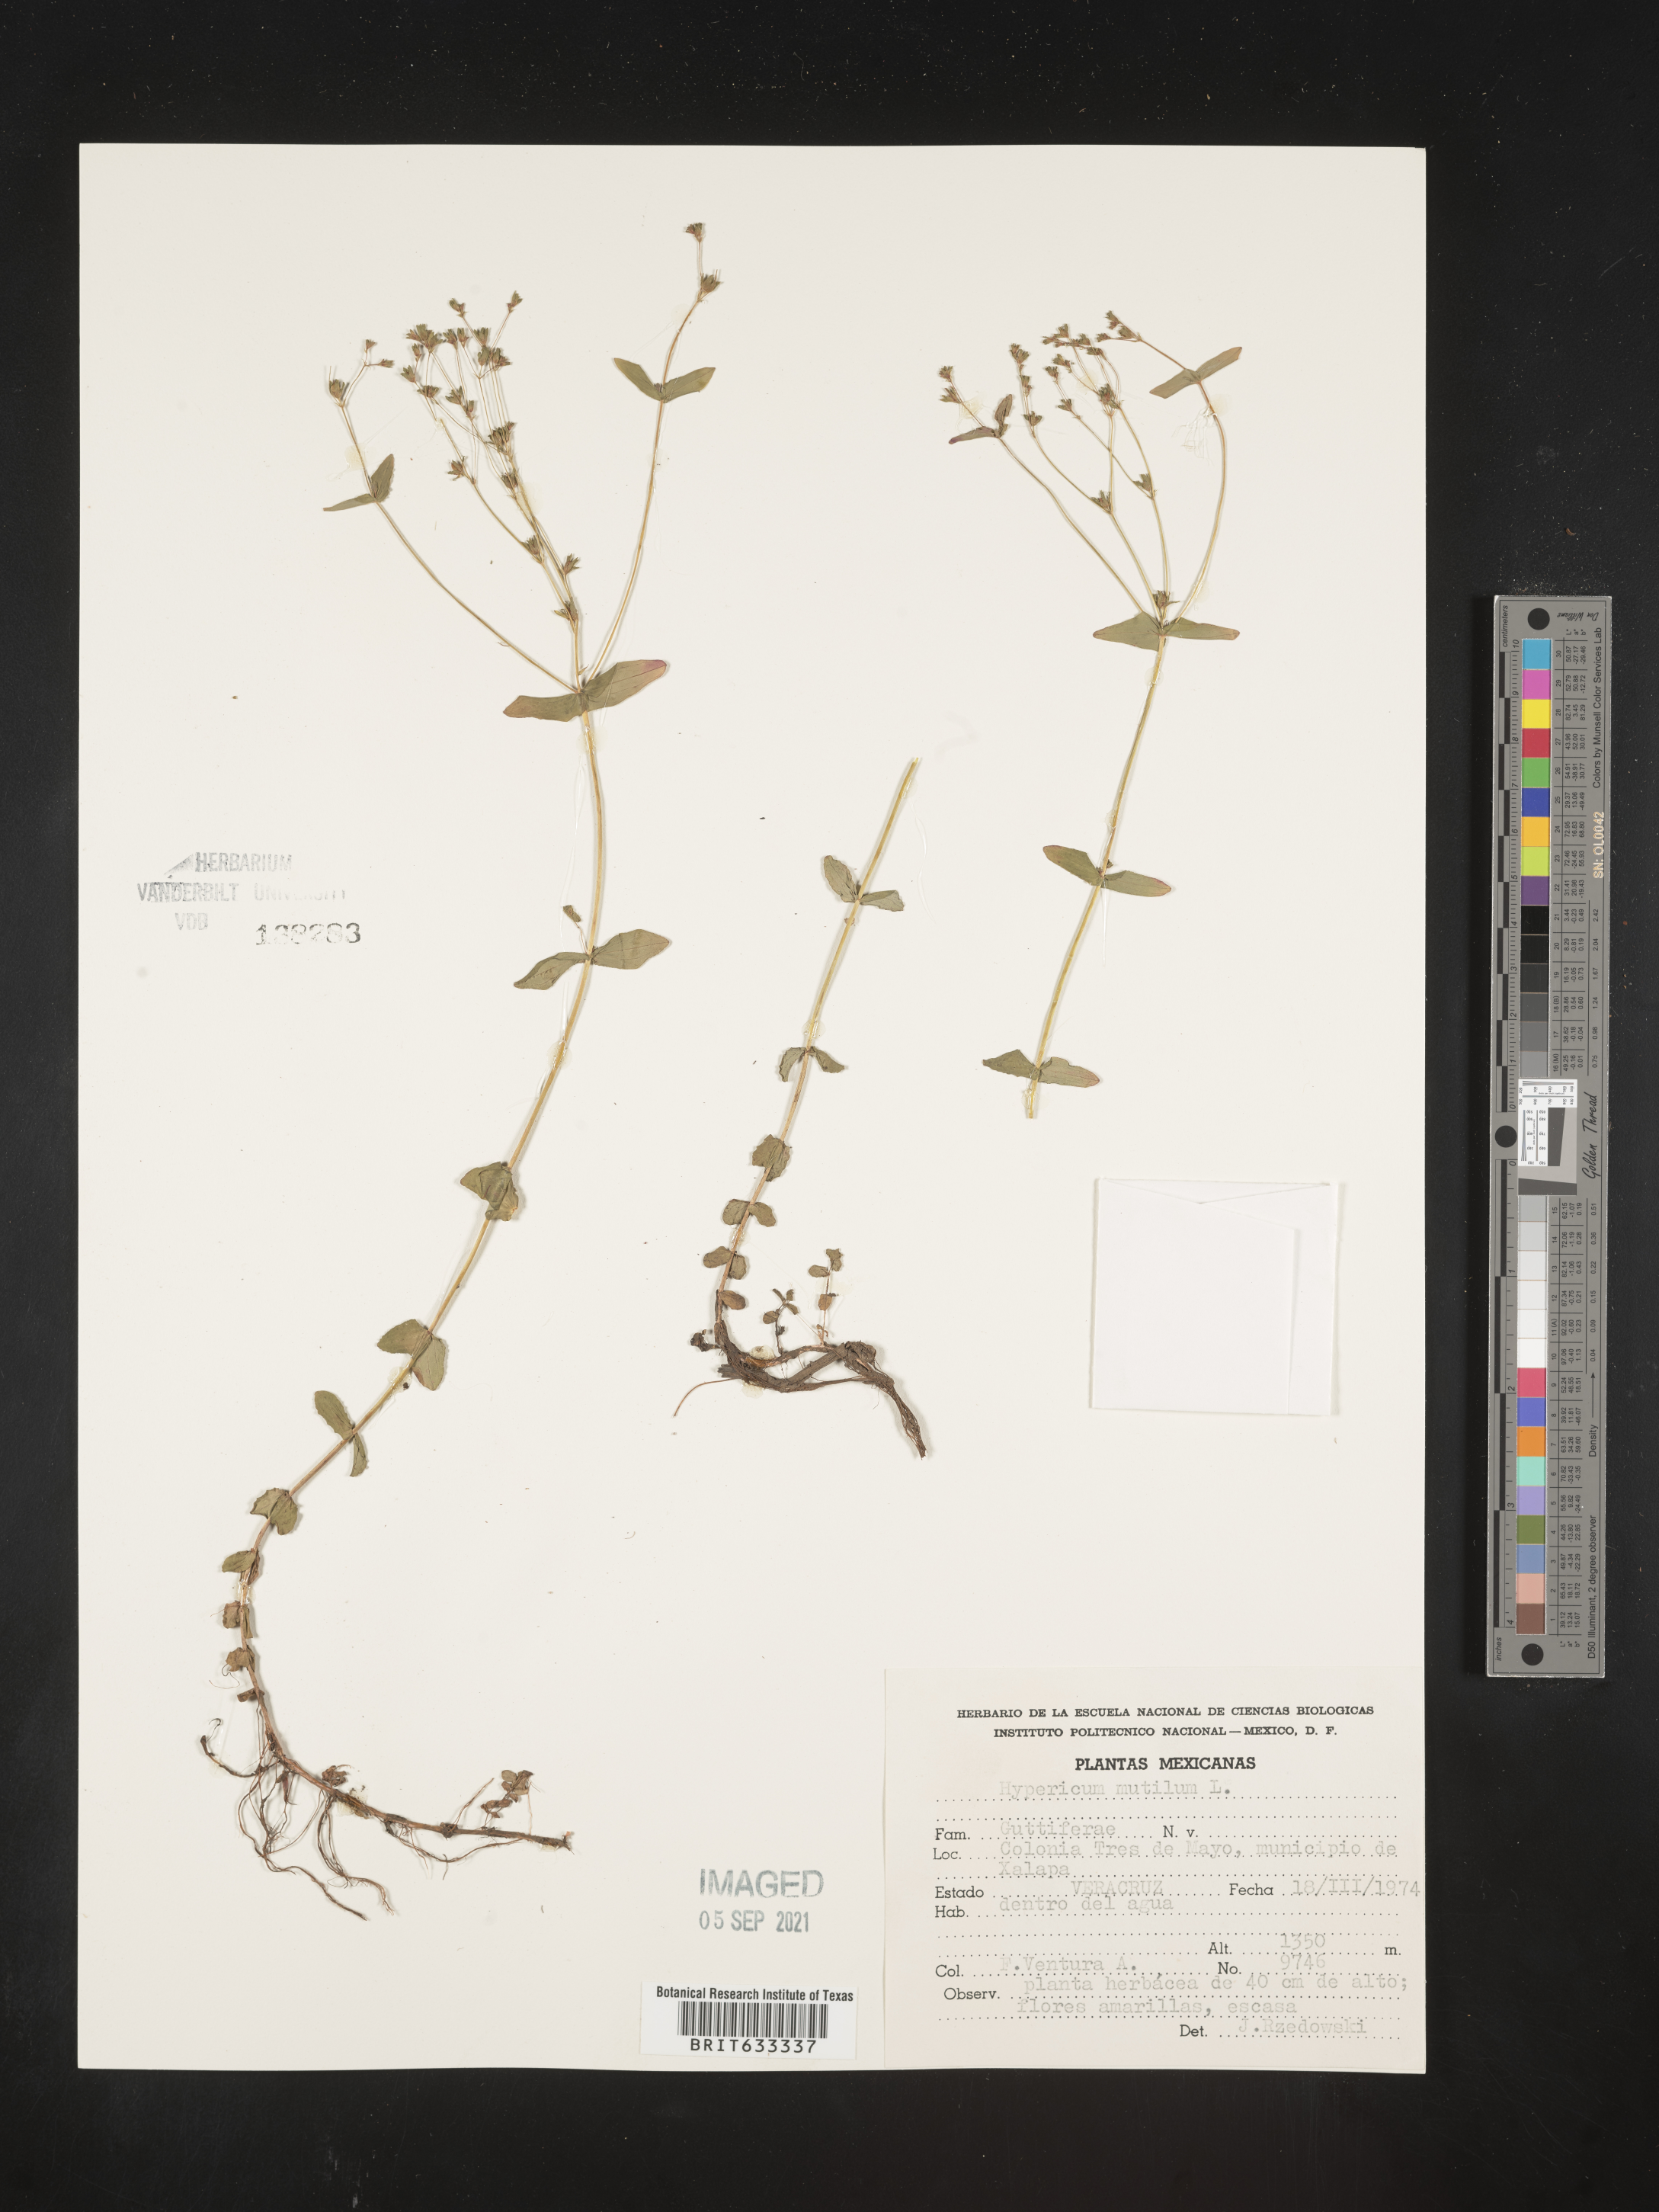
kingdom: Plantae
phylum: Tracheophyta
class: Magnoliopsida
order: Malpighiales
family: Hypericaceae
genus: Hypericum
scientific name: Hypericum
